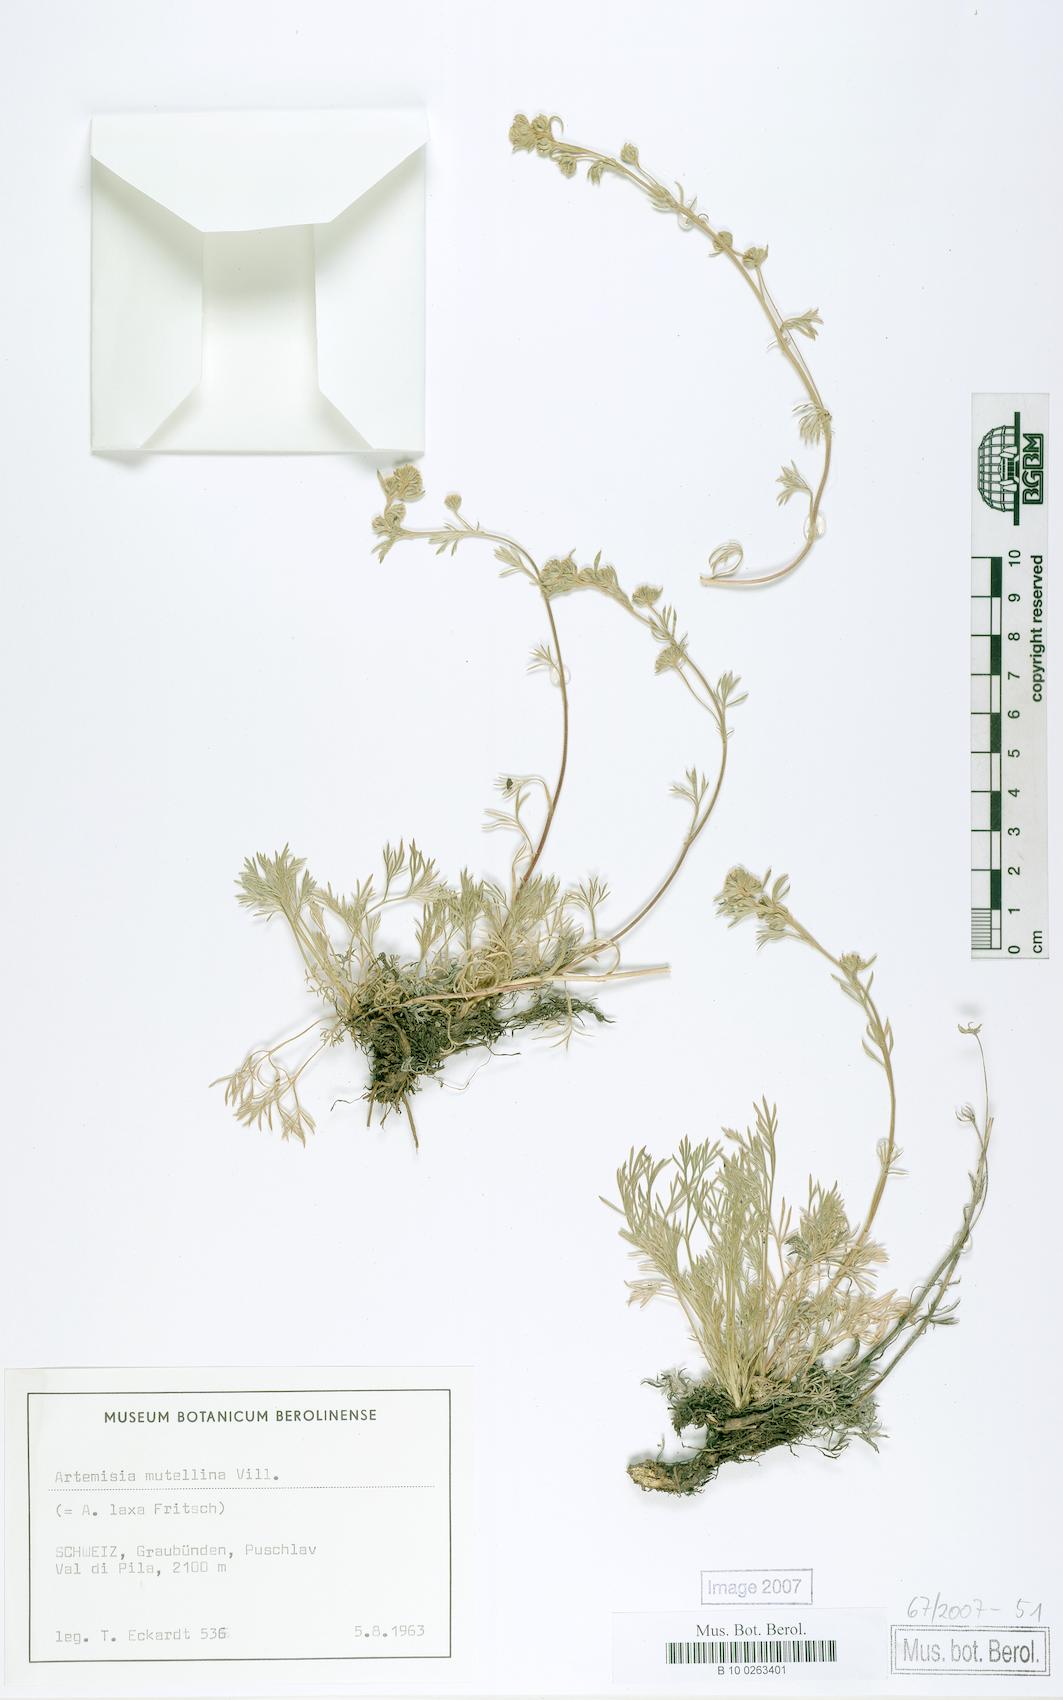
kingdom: Plantae
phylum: Tracheophyta
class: Magnoliopsida
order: Asterales
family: Asteraceae
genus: Artemisia
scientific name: Artemisia mutellina
